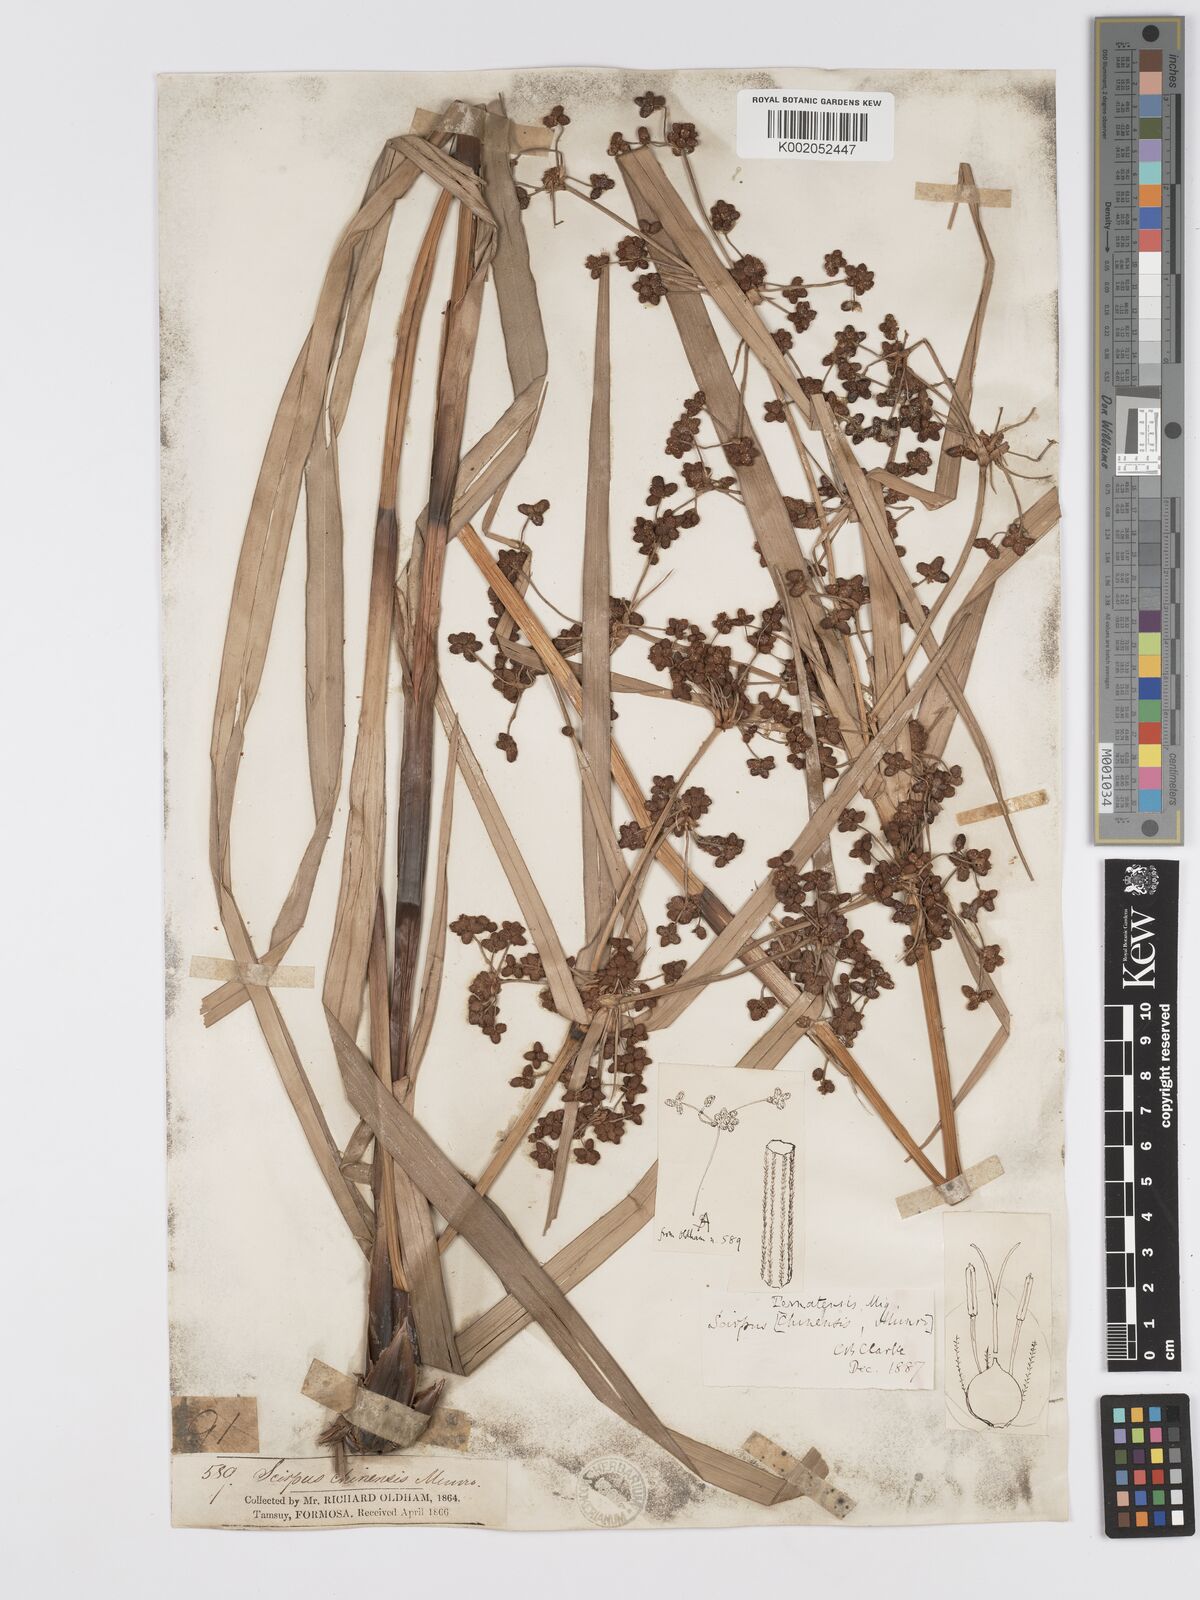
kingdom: Plantae
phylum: Tracheophyta
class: Liliopsida
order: Poales
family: Cyperaceae
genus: Scirpus
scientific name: Scirpus ternatanus
